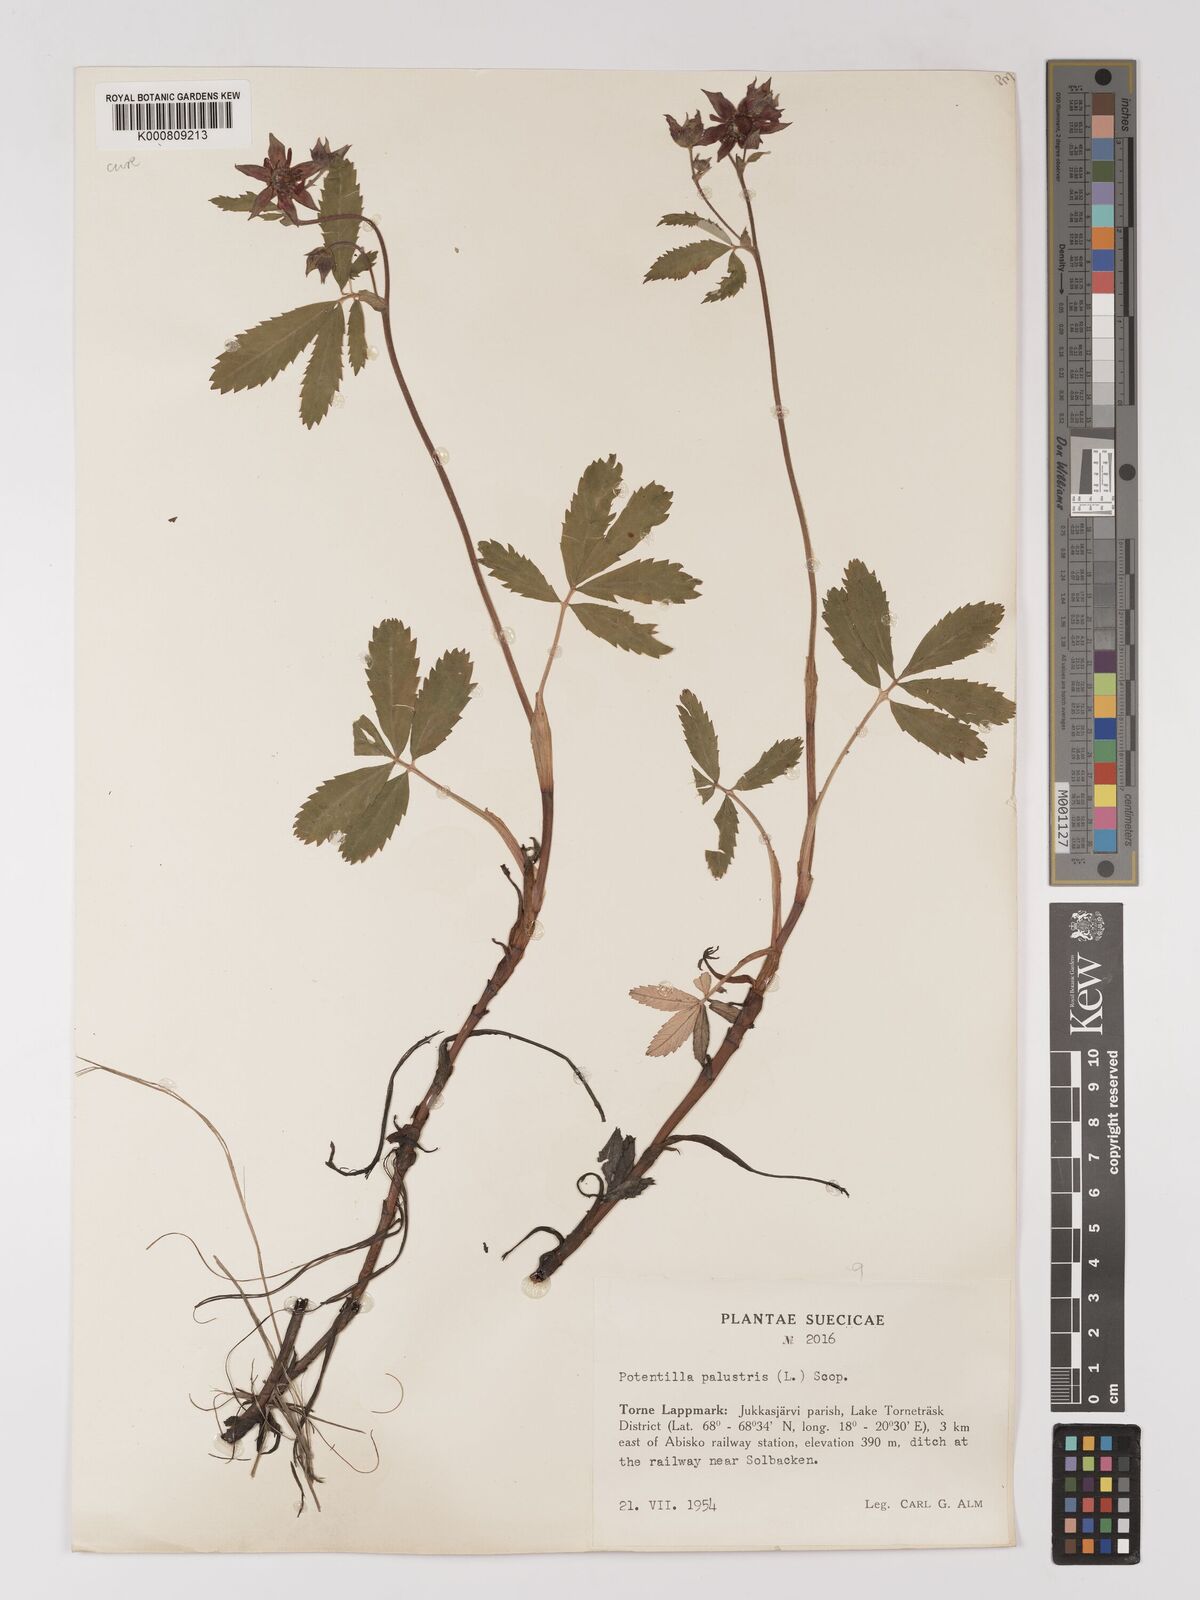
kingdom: Plantae
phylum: Tracheophyta
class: Magnoliopsida
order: Rosales
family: Rosaceae
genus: Comarum
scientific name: Comarum palustre
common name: Marsh cinquefoil
